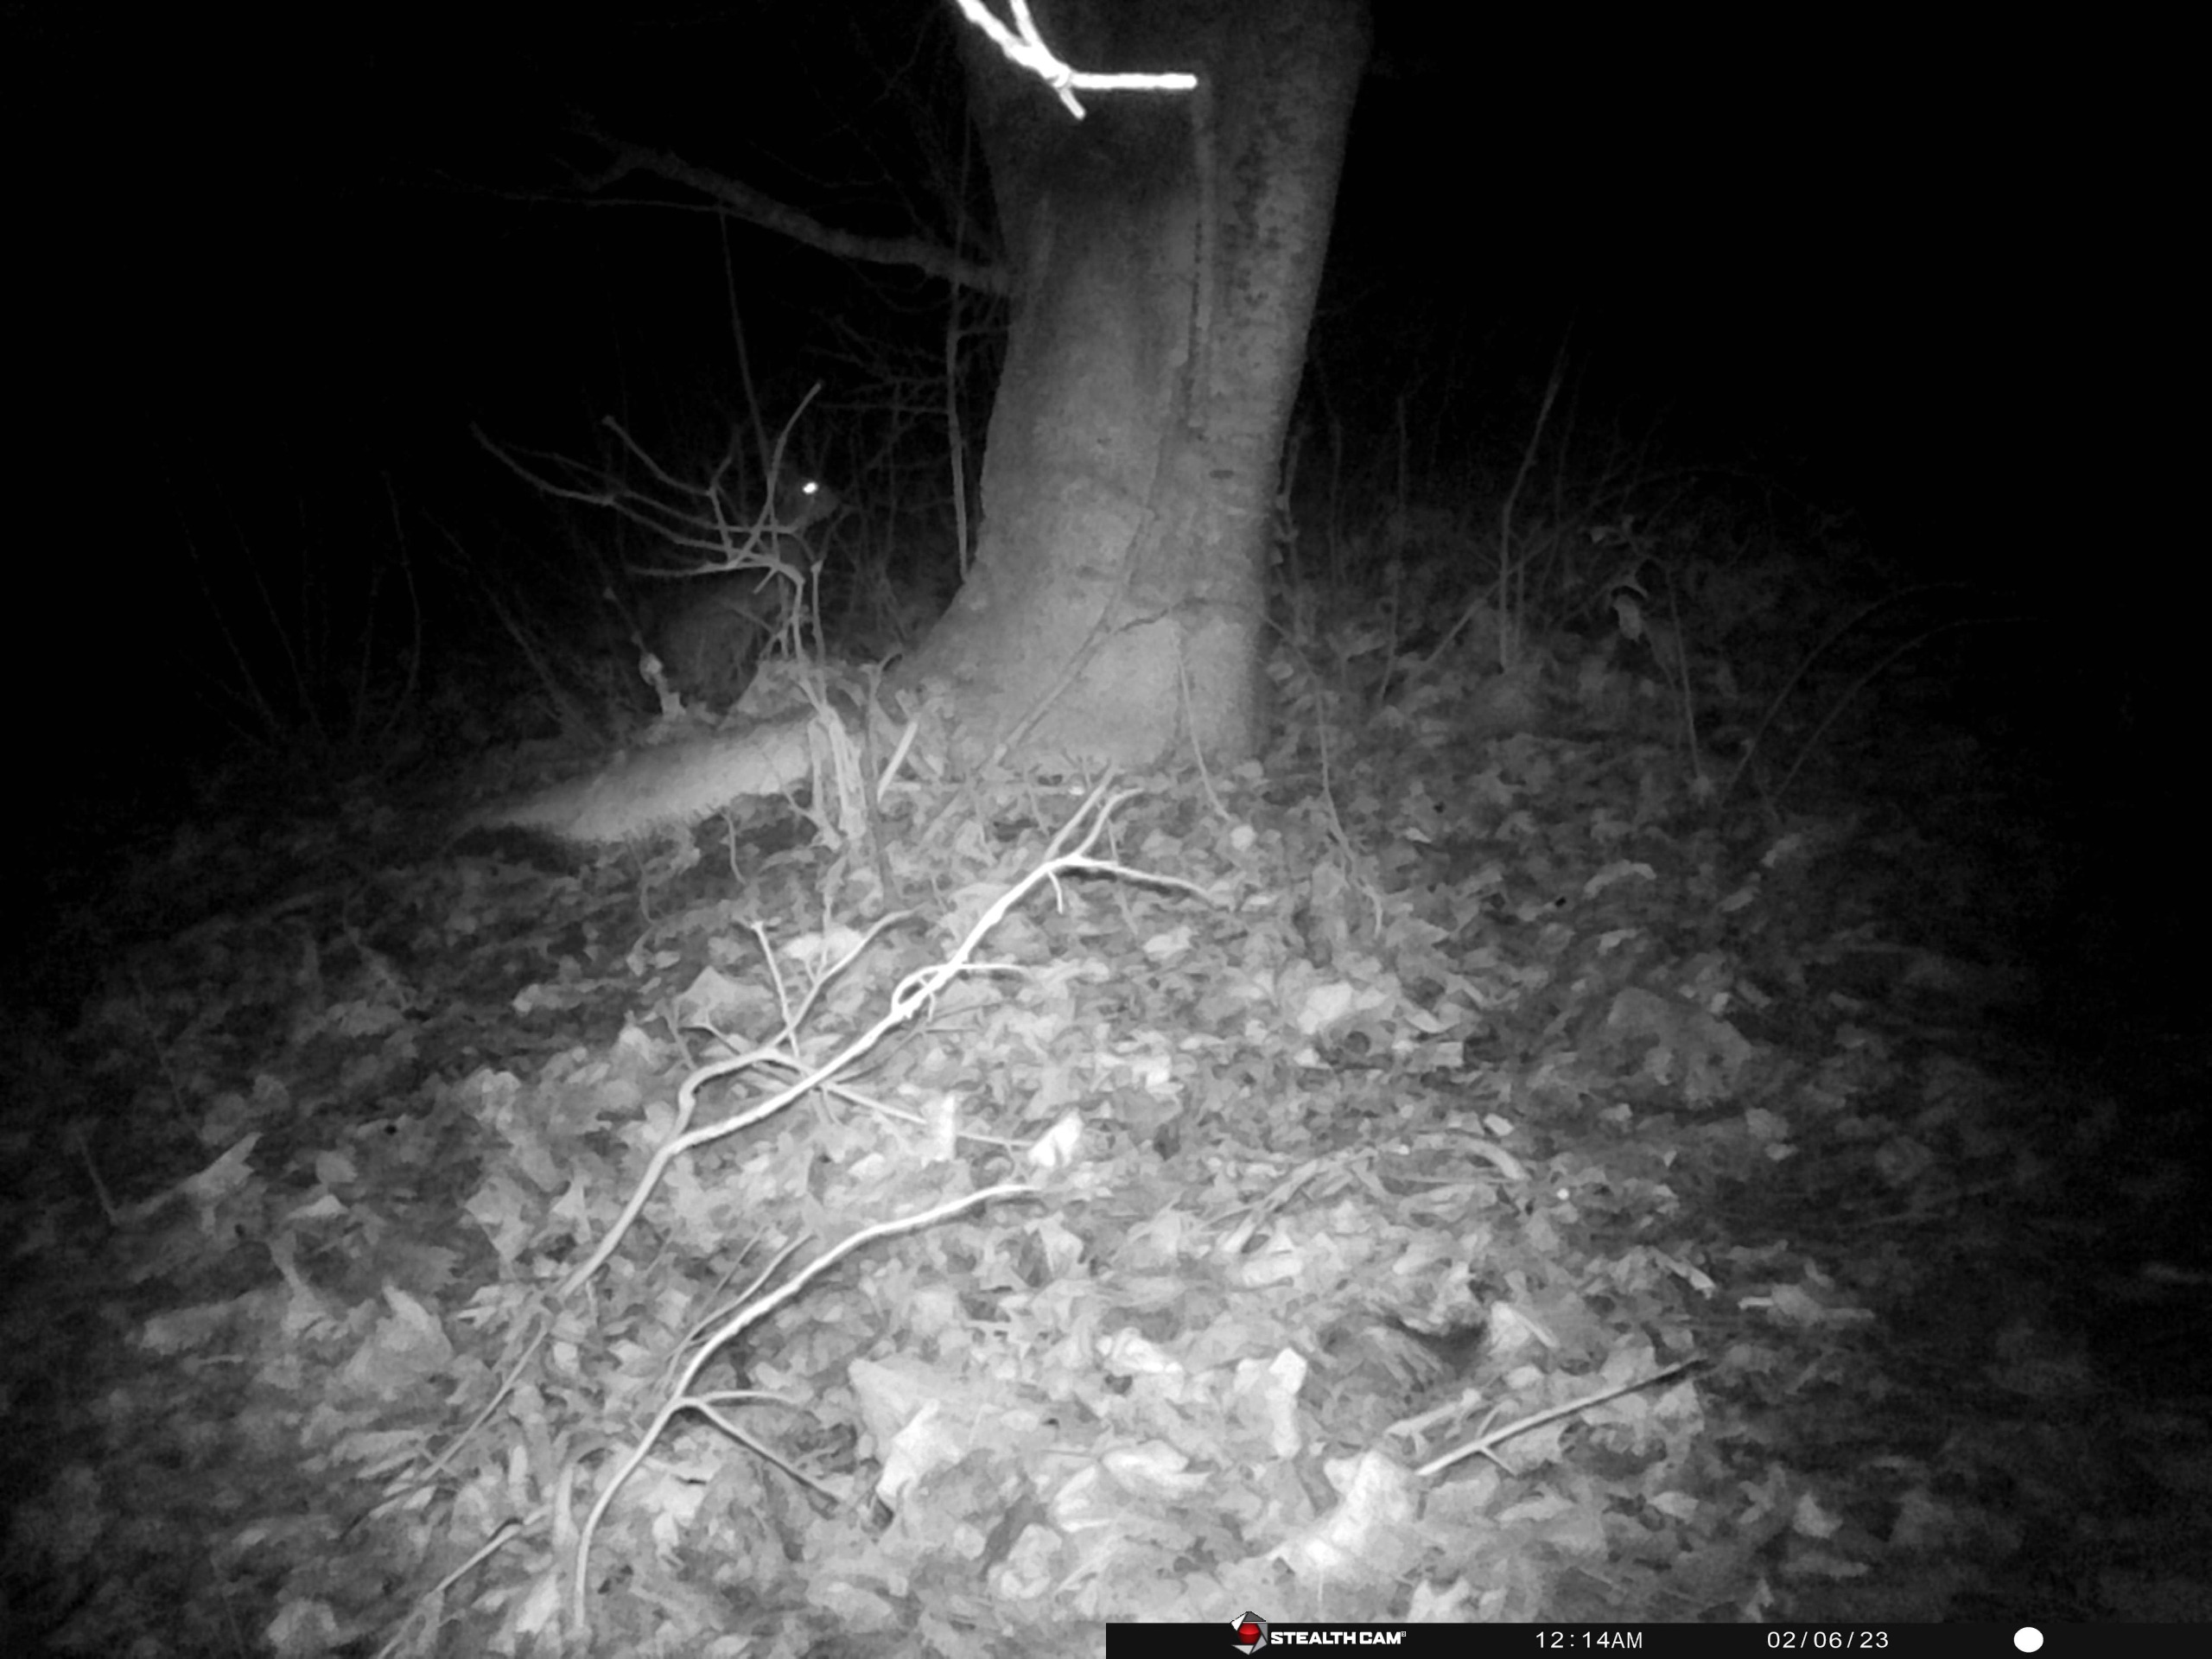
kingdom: Animalia
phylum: Chordata
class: Mammalia
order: Lagomorpha
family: Leporidae
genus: Lepus
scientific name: Lepus europaeus
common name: Hare
